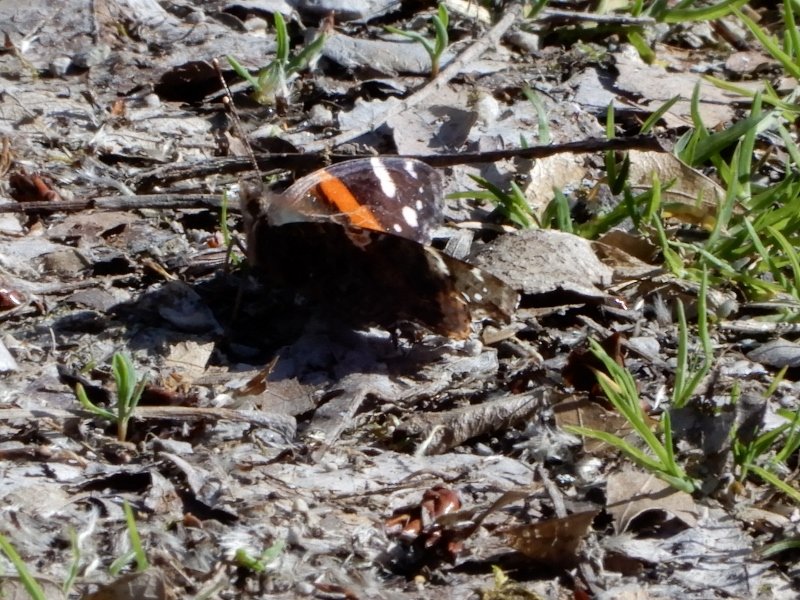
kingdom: Animalia
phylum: Arthropoda
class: Insecta
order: Lepidoptera
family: Nymphalidae
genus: Vanessa
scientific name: Vanessa atalanta
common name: Red Admiral
